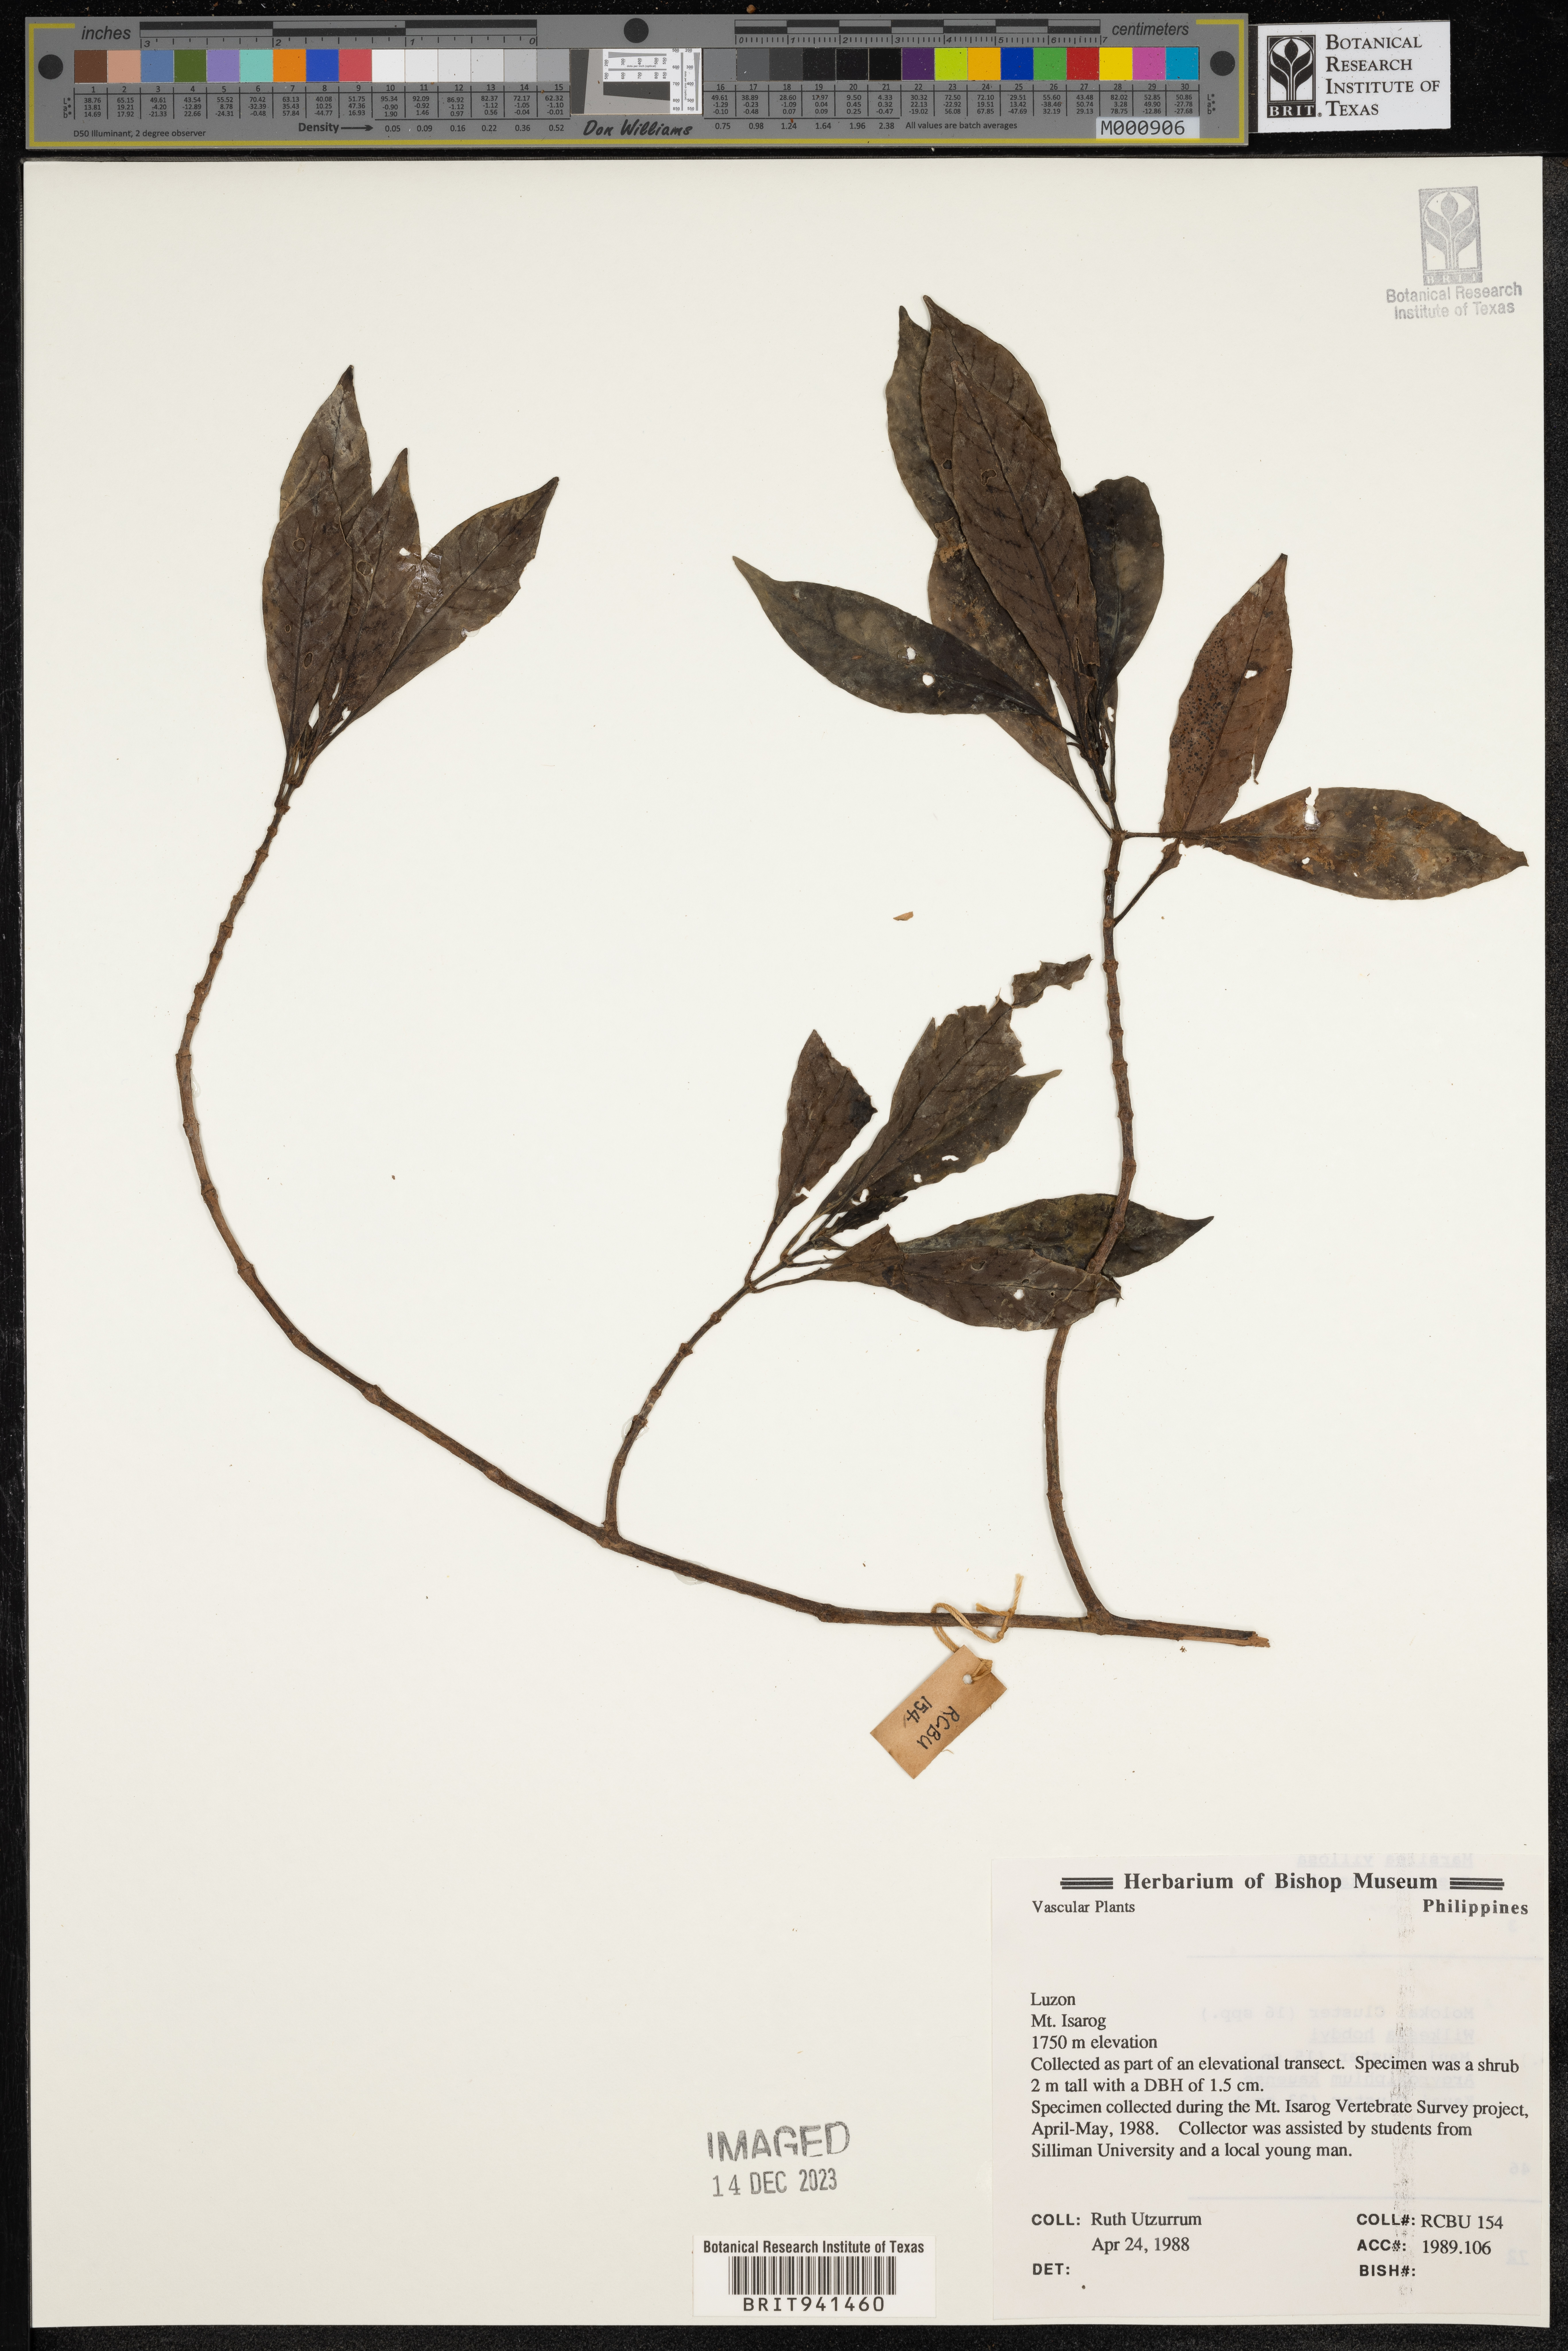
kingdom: Plantae
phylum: Tracheophyta
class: Magnoliopsida
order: Gentianales
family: Rubiaceae
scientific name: Rubiaceae
